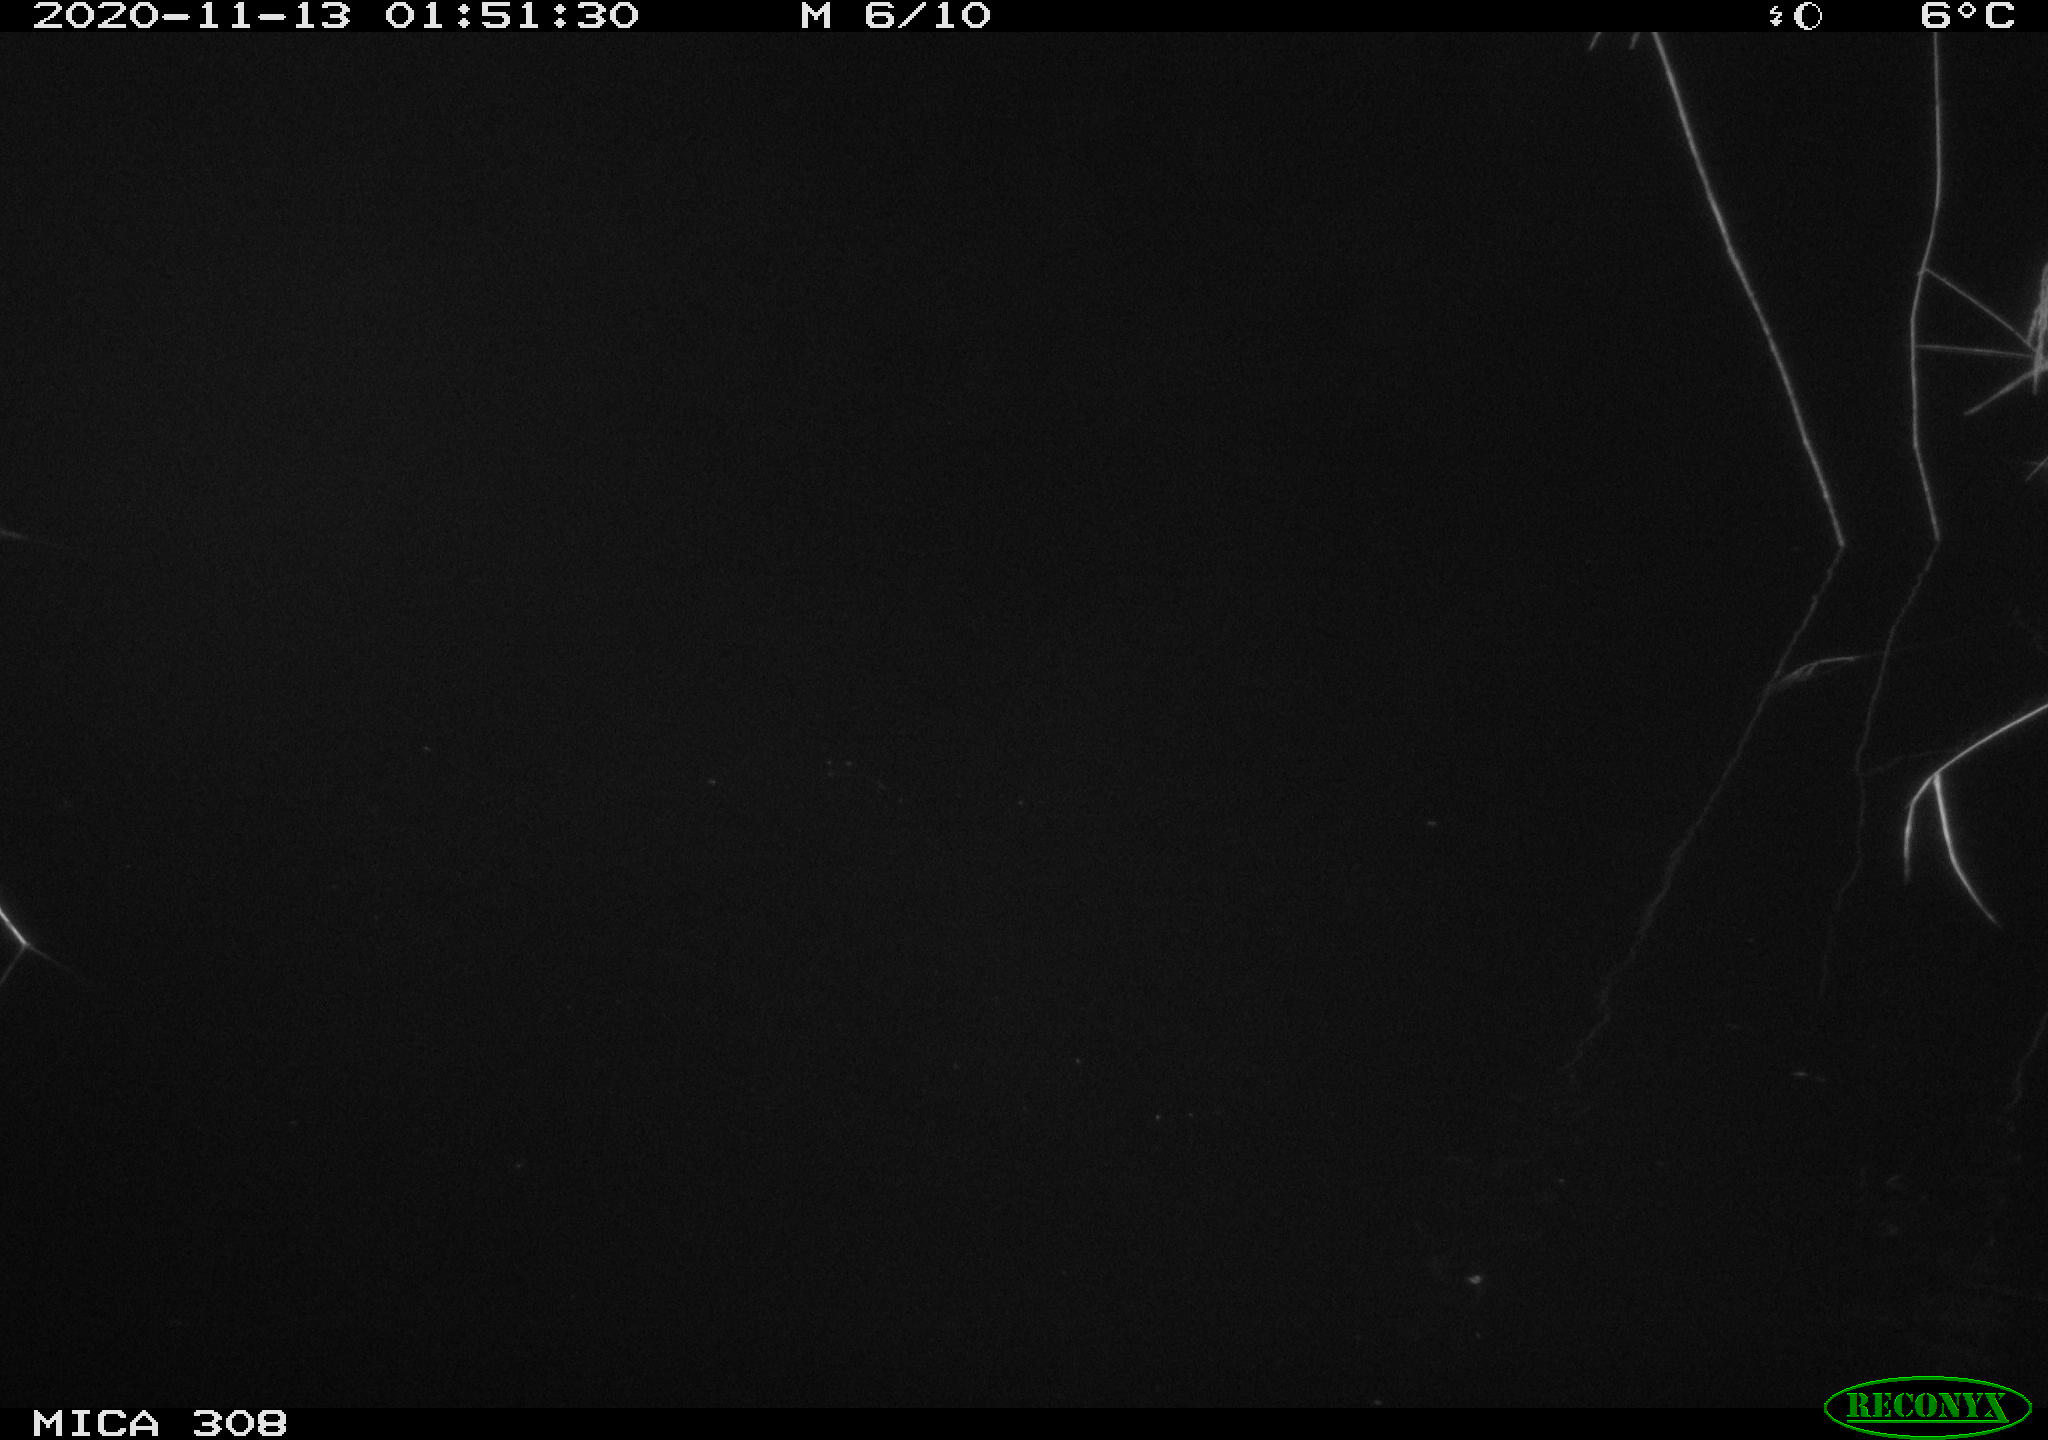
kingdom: Animalia
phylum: Chordata
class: Mammalia
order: Rodentia
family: Muridae
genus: Rattus
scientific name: Rattus norvegicus
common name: Brown rat
